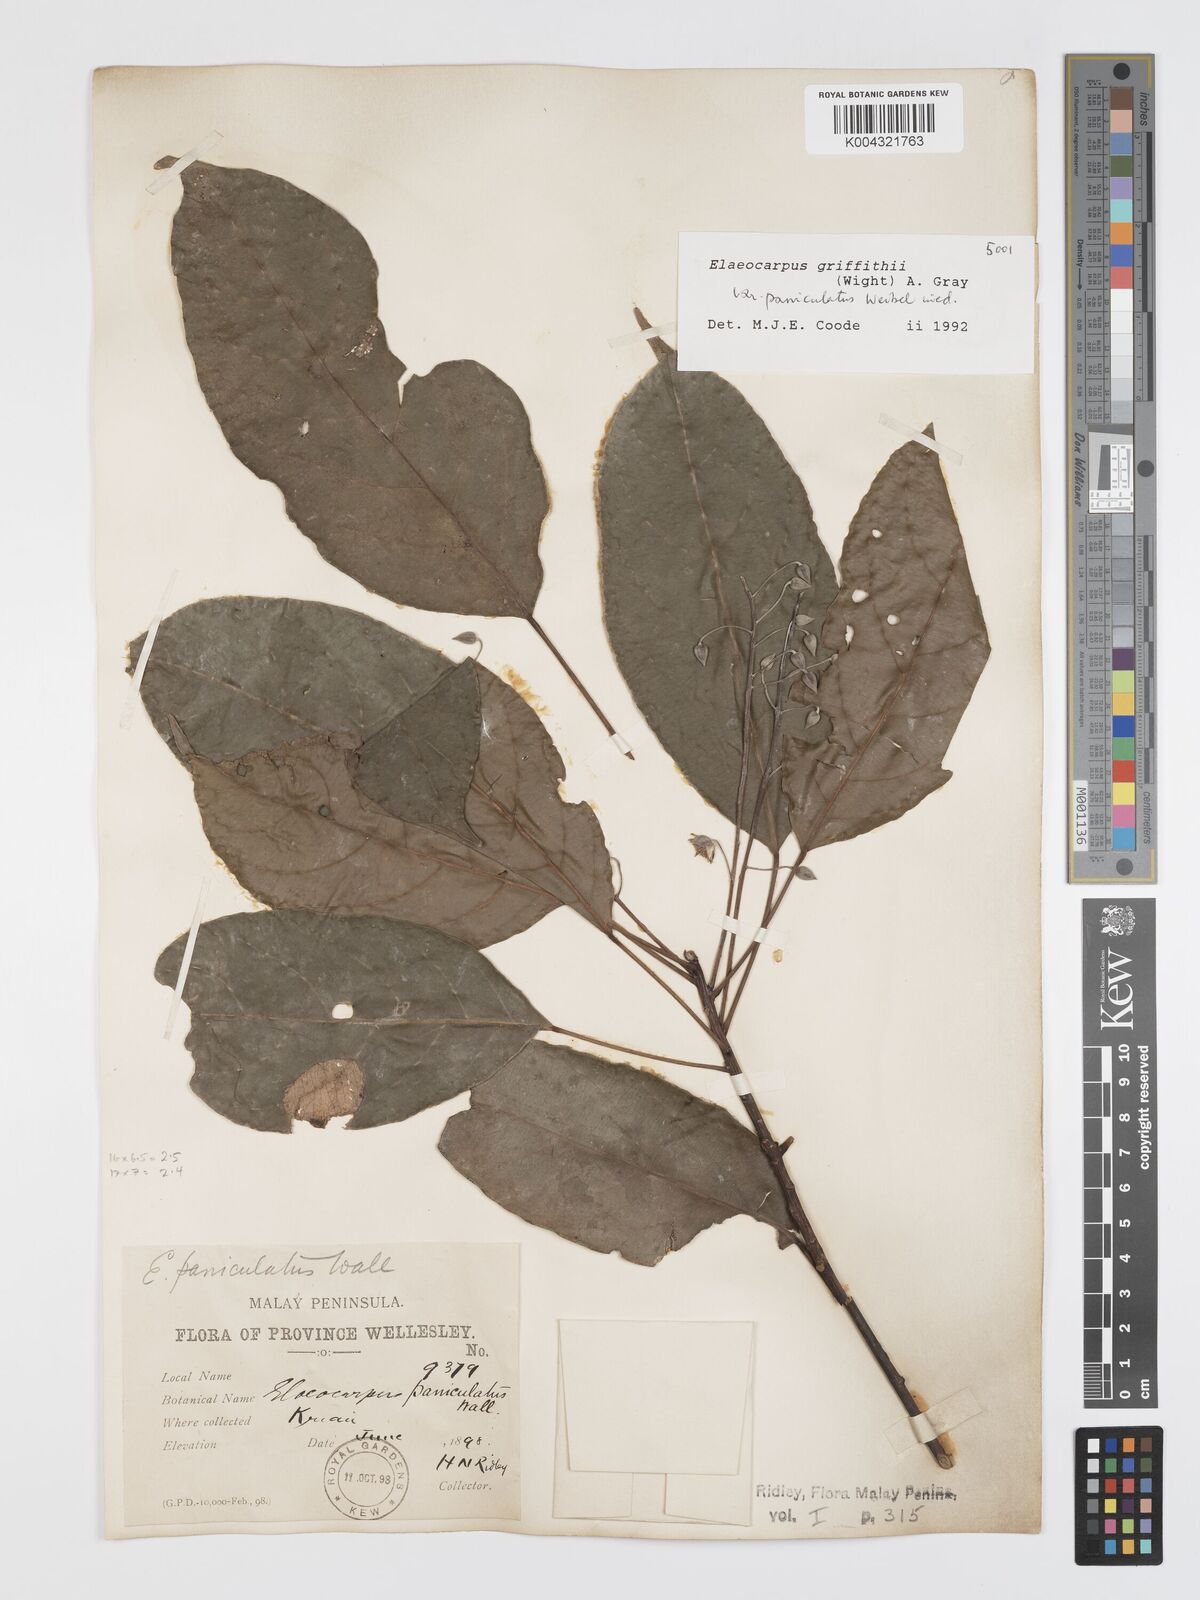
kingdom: Plantae
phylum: Tracheophyta
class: Magnoliopsida
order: Oxalidales
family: Elaeocarpaceae
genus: Elaeocarpus
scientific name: Elaeocarpus griffithii
